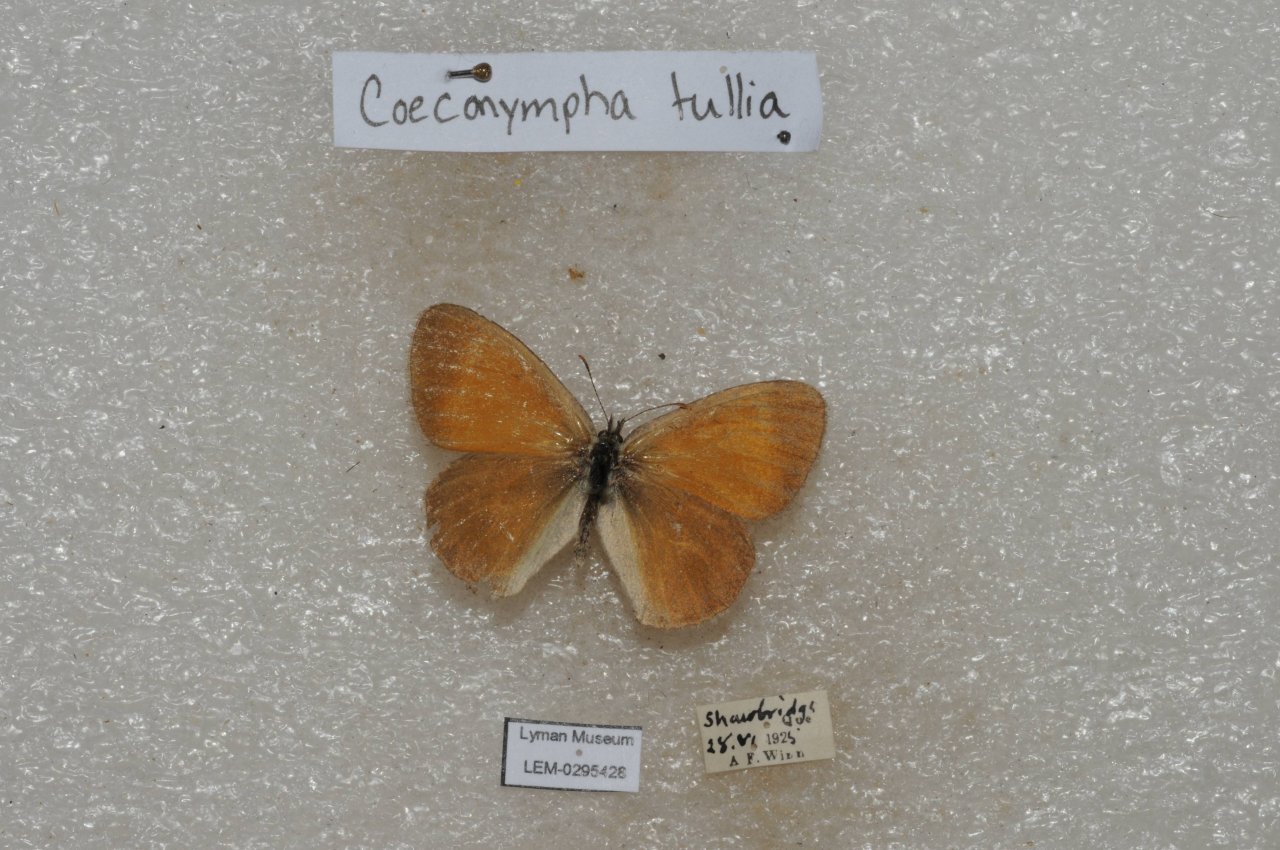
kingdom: Animalia
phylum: Arthropoda
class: Insecta
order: Lepidoptera
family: Nymphalidae
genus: Coenonympha
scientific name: Coenonympha tullia
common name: Large Heath
